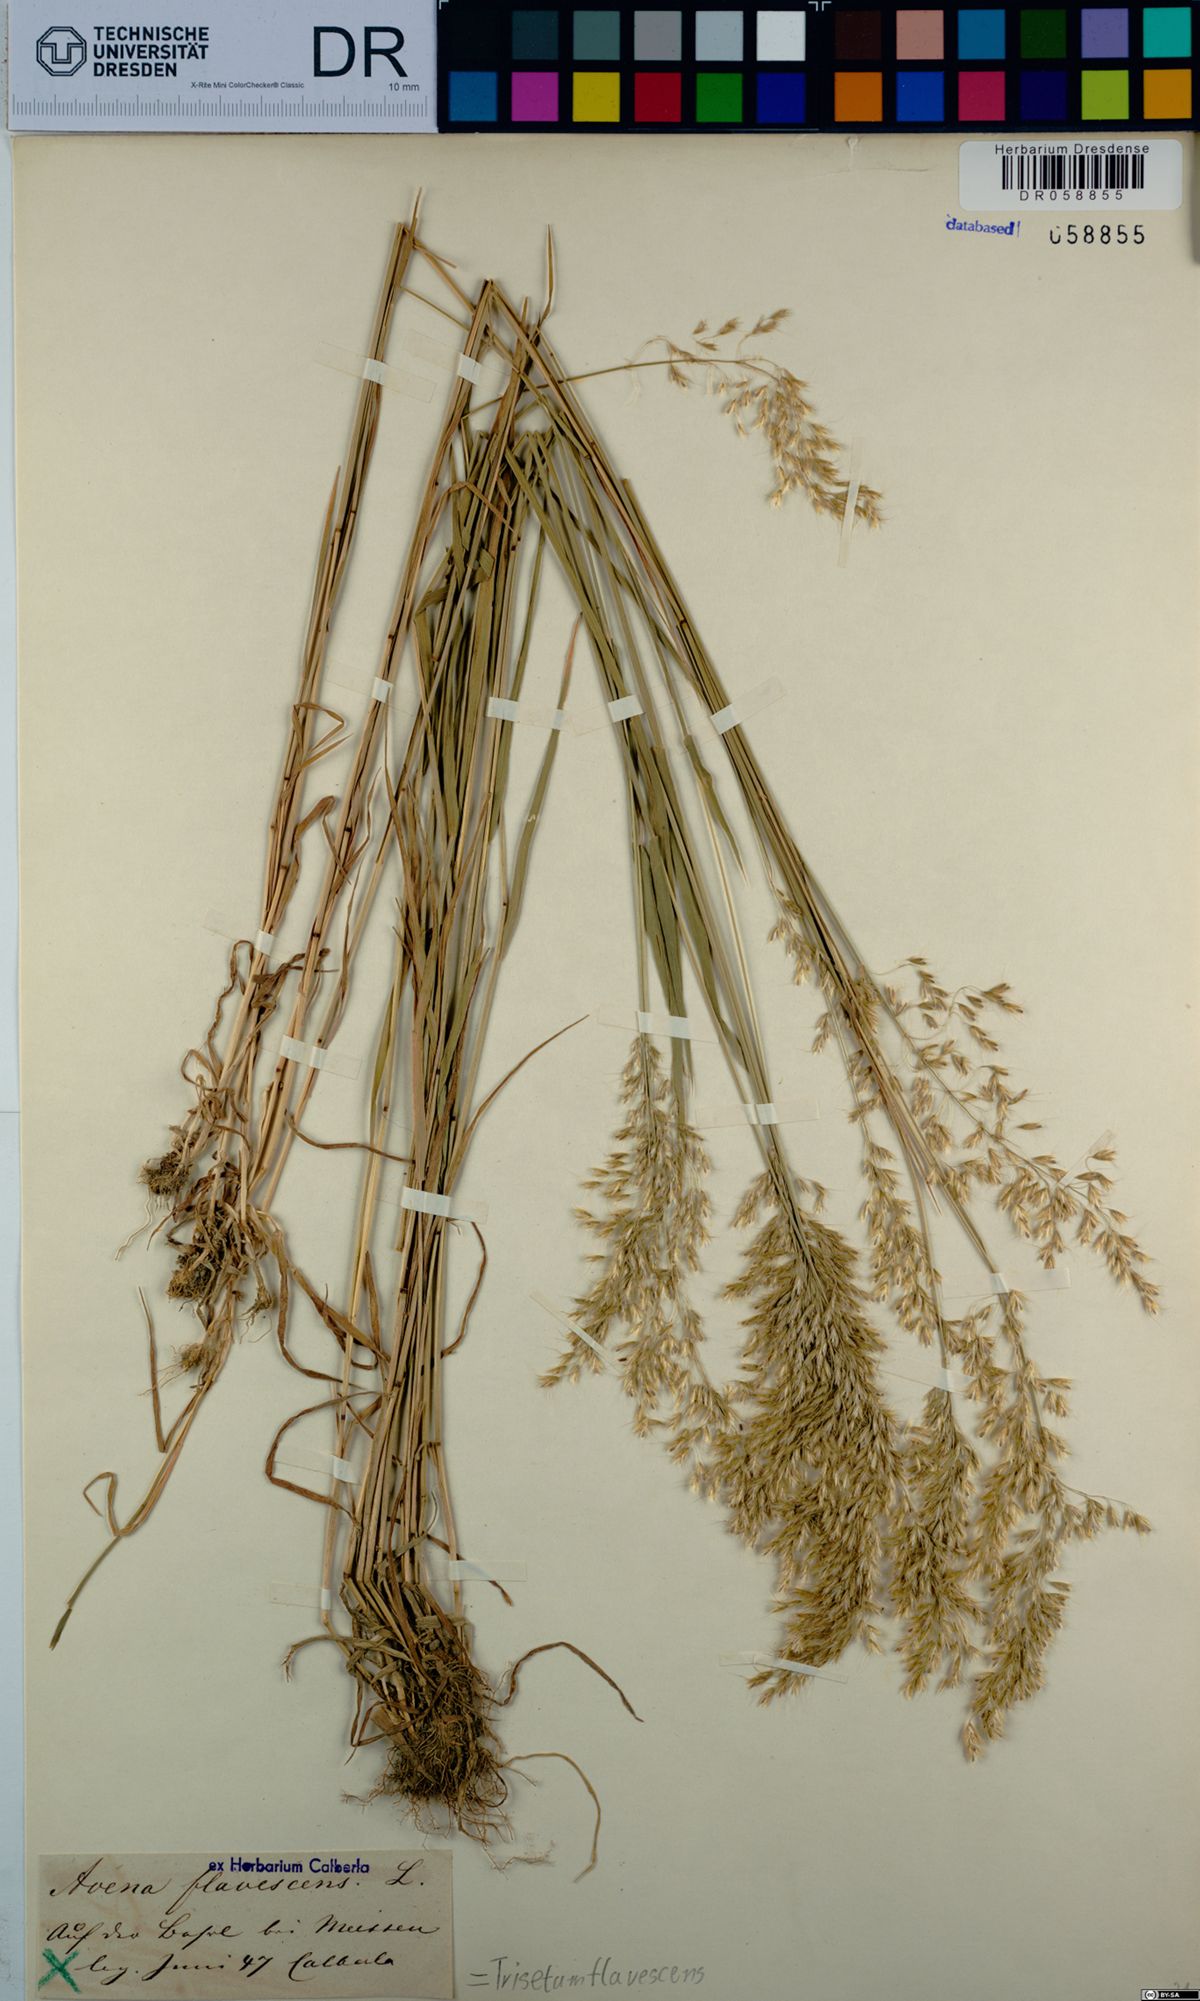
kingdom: Plantae
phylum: Tracheophyta
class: Liliopsida
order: Poales
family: Poaceae
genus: Trisetum
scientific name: Trisetum flavescens
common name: Yellow oat-grass
